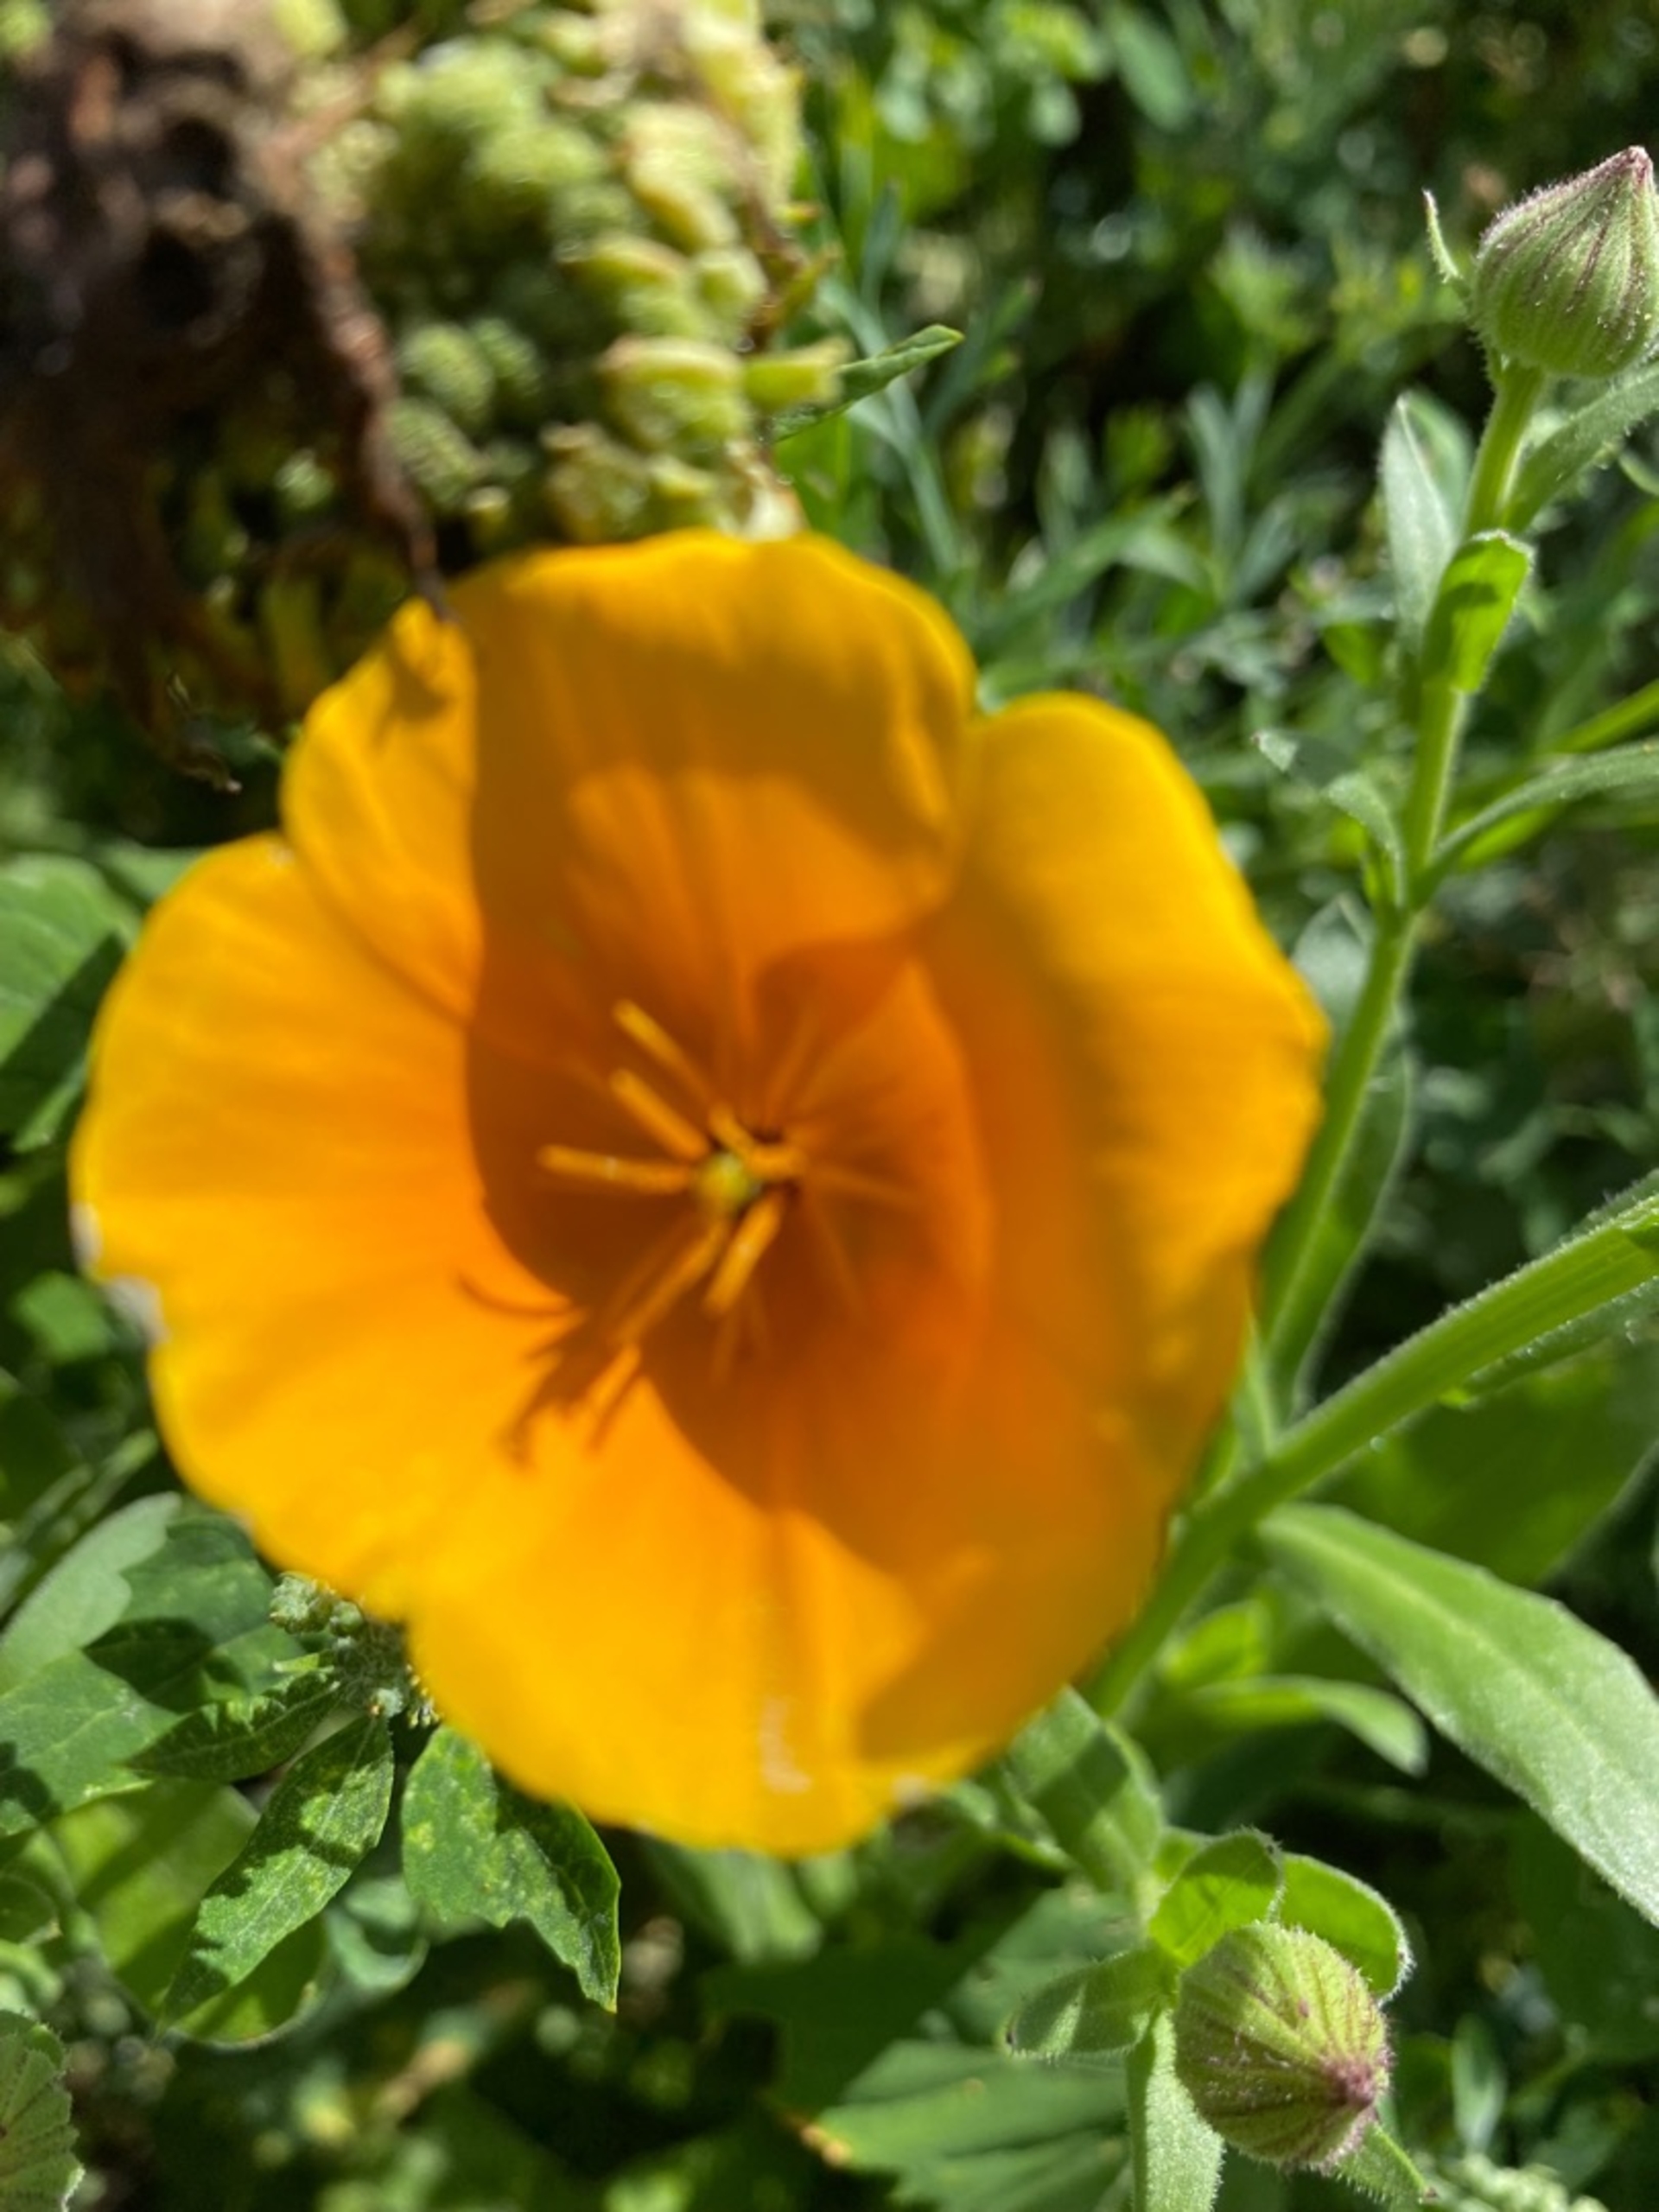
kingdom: Plantae
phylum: Tracheophyta
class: Magnoliopsida
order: Ranunculales
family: Papaveraceae
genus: Eschscholzia
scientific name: Eschscholzia californica
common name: Guldvalmue
